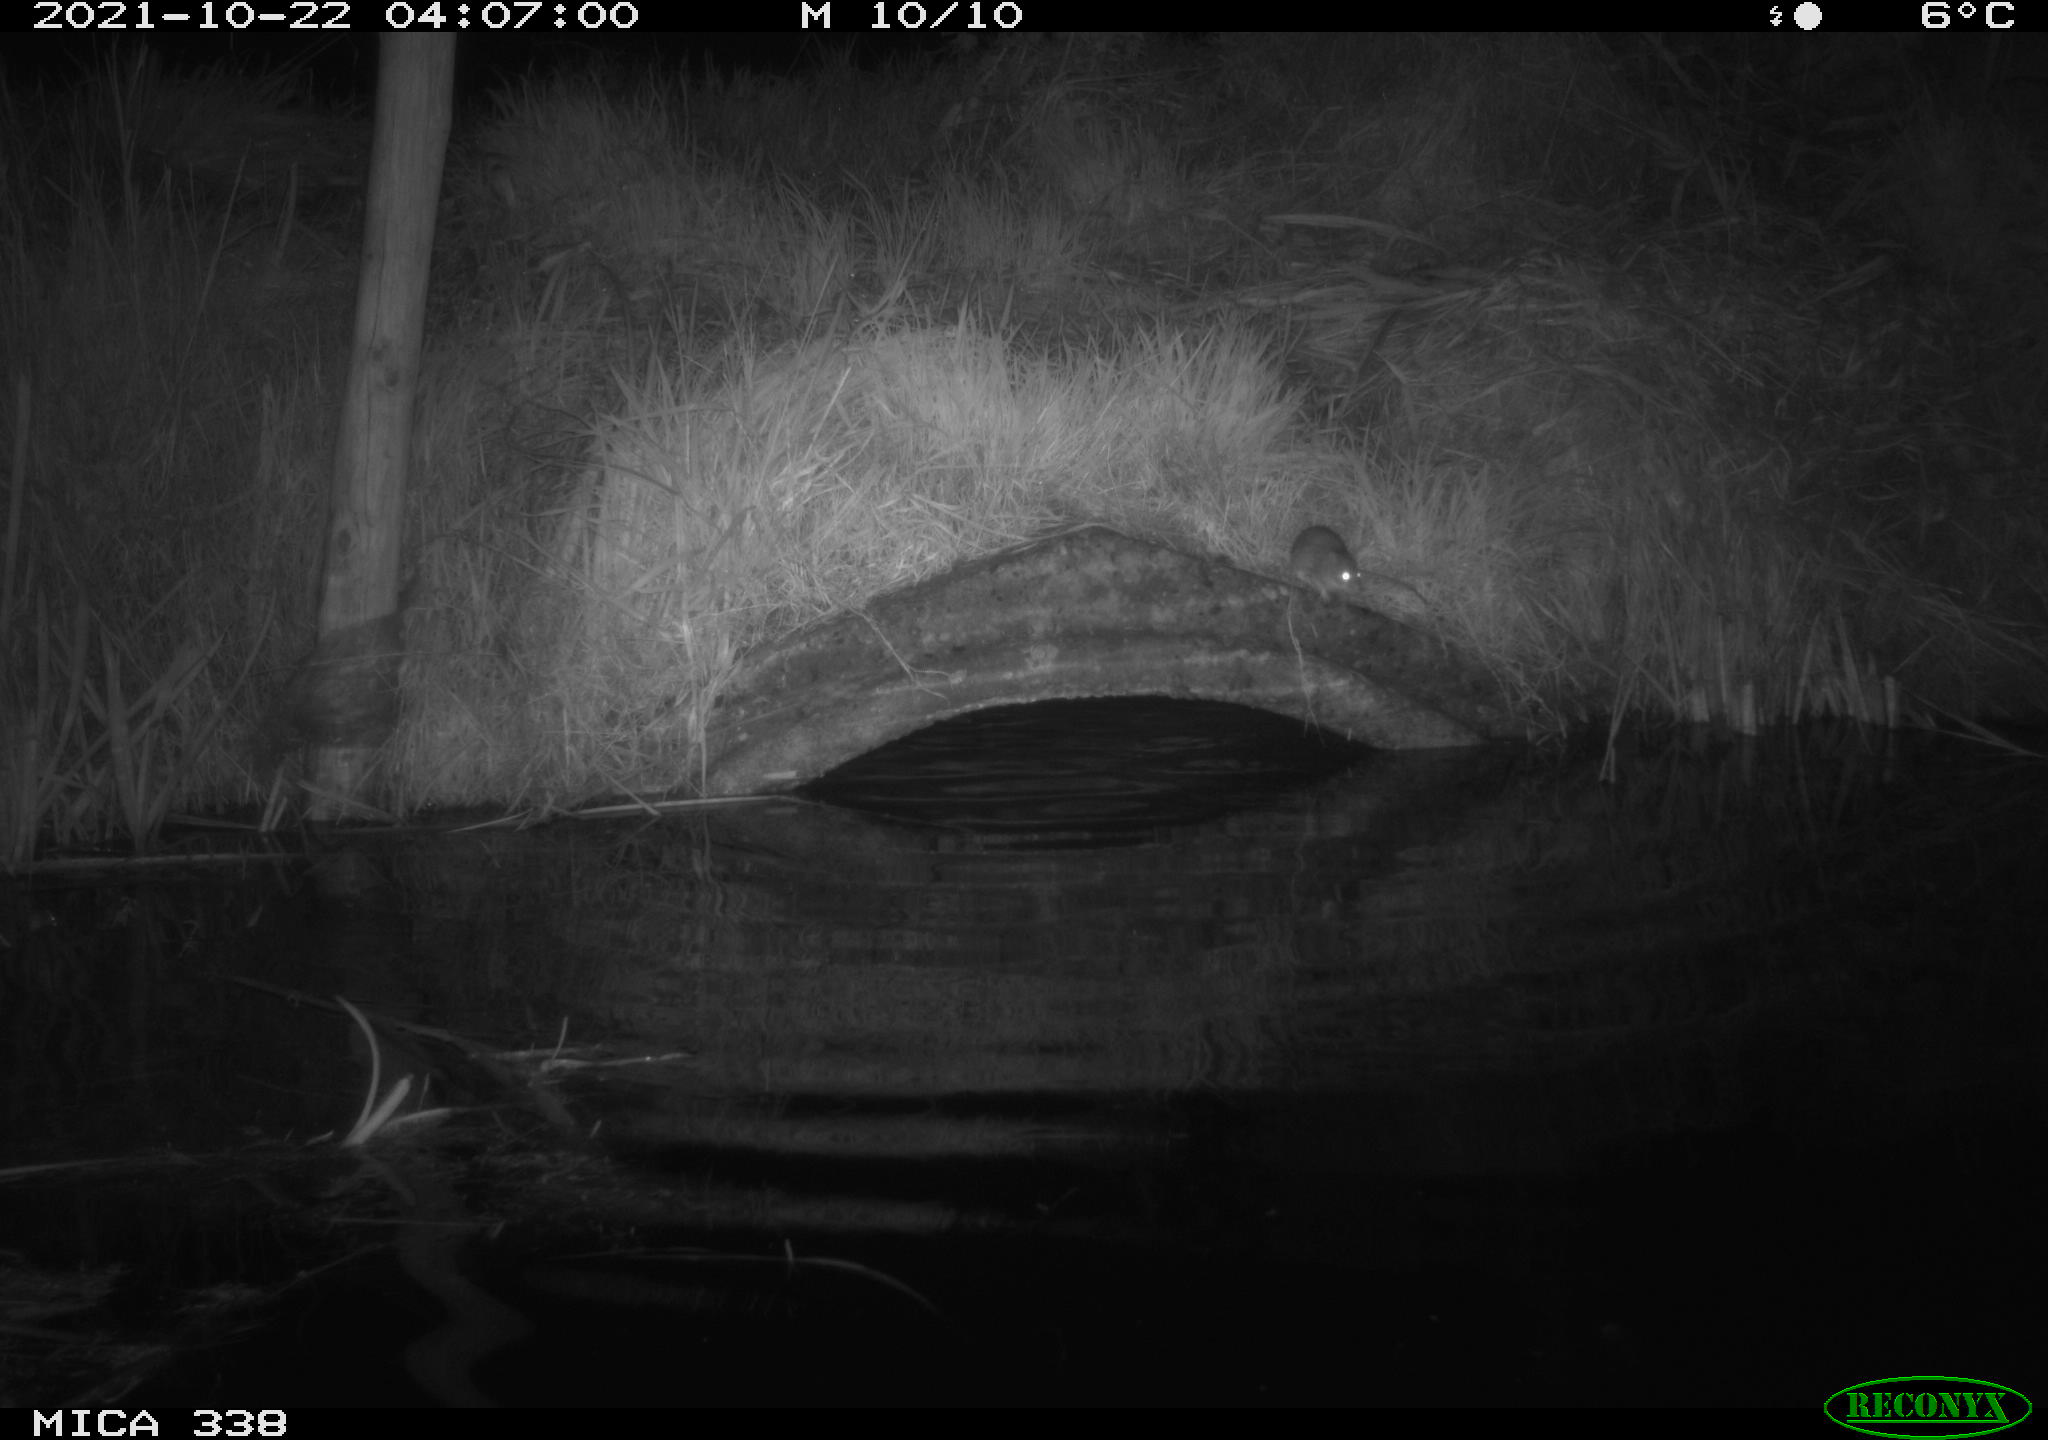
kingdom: Animalia
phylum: Chordata
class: Mammalia
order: Rodentia
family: Muridae
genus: Rattus
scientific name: Rattus norvegicus
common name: Brown rat
